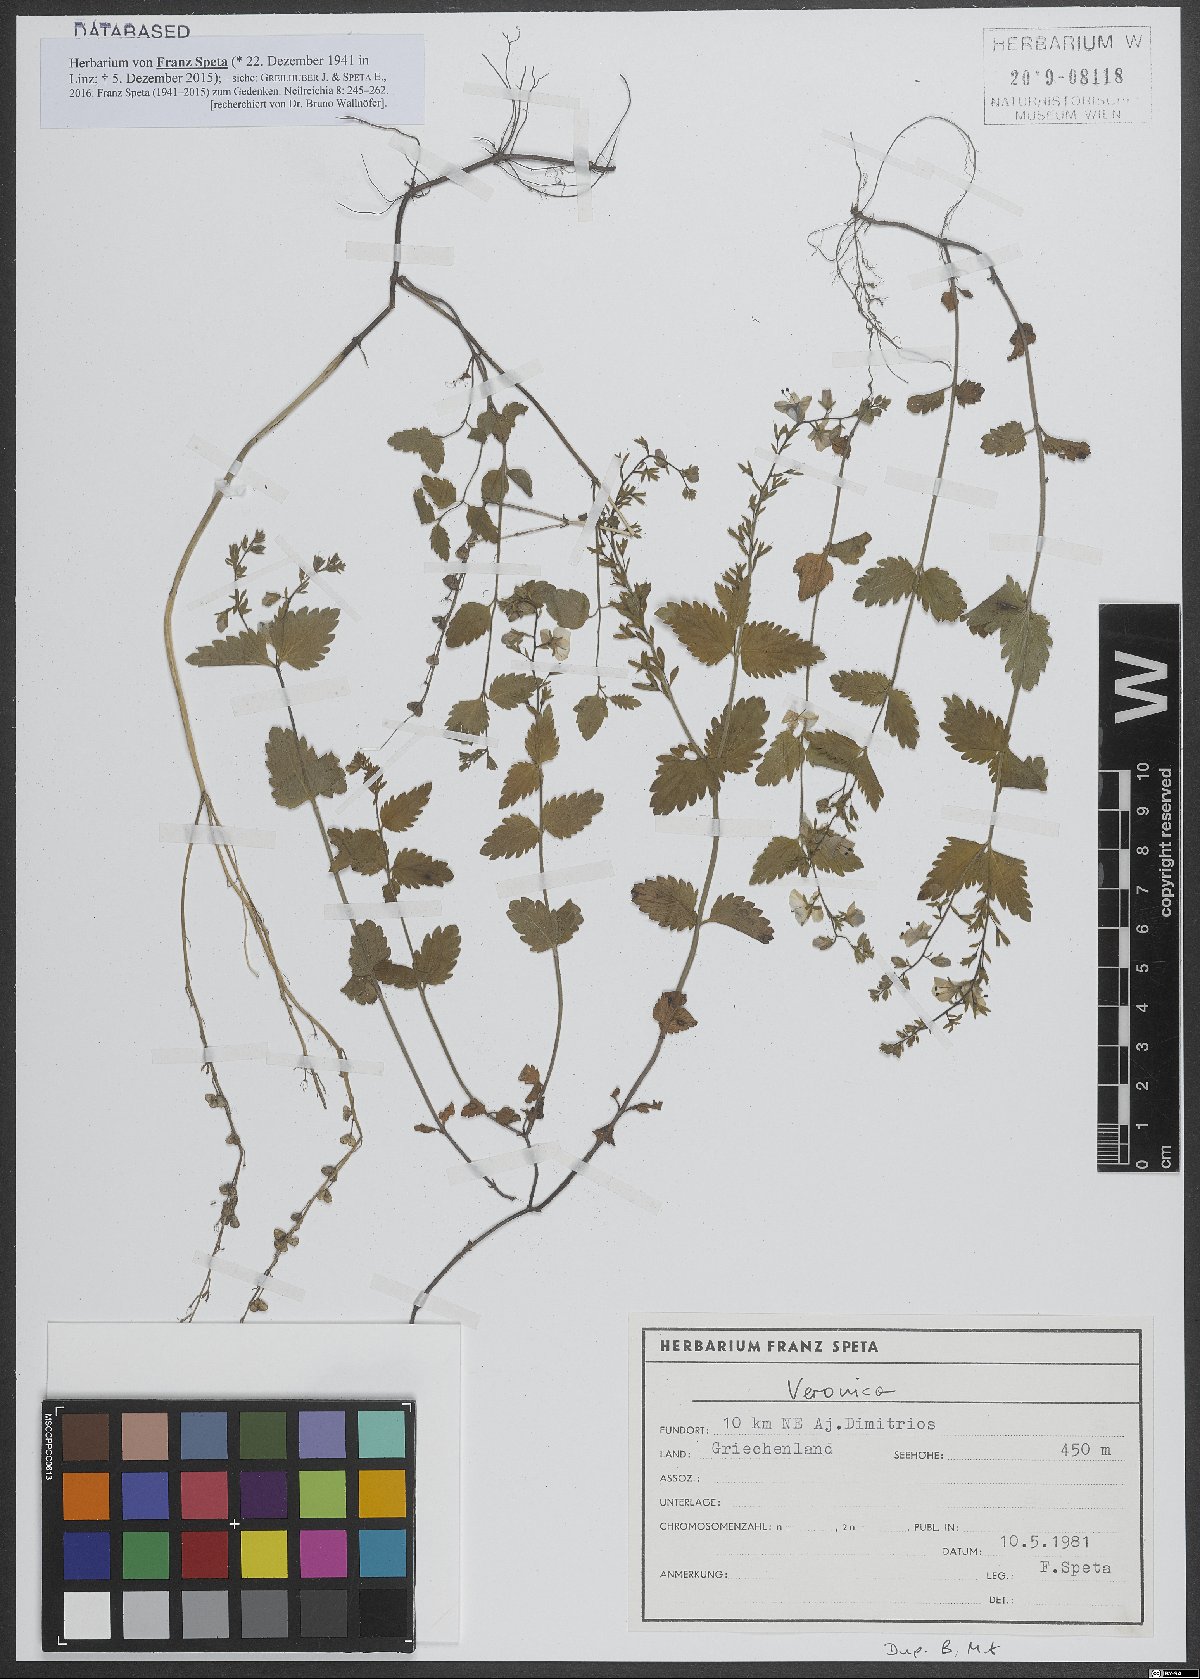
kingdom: Plantae
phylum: Tracheophyta
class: Magnoliopsida
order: Lamiales
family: Plantaginaceae
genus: Veronica
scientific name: Veronica
